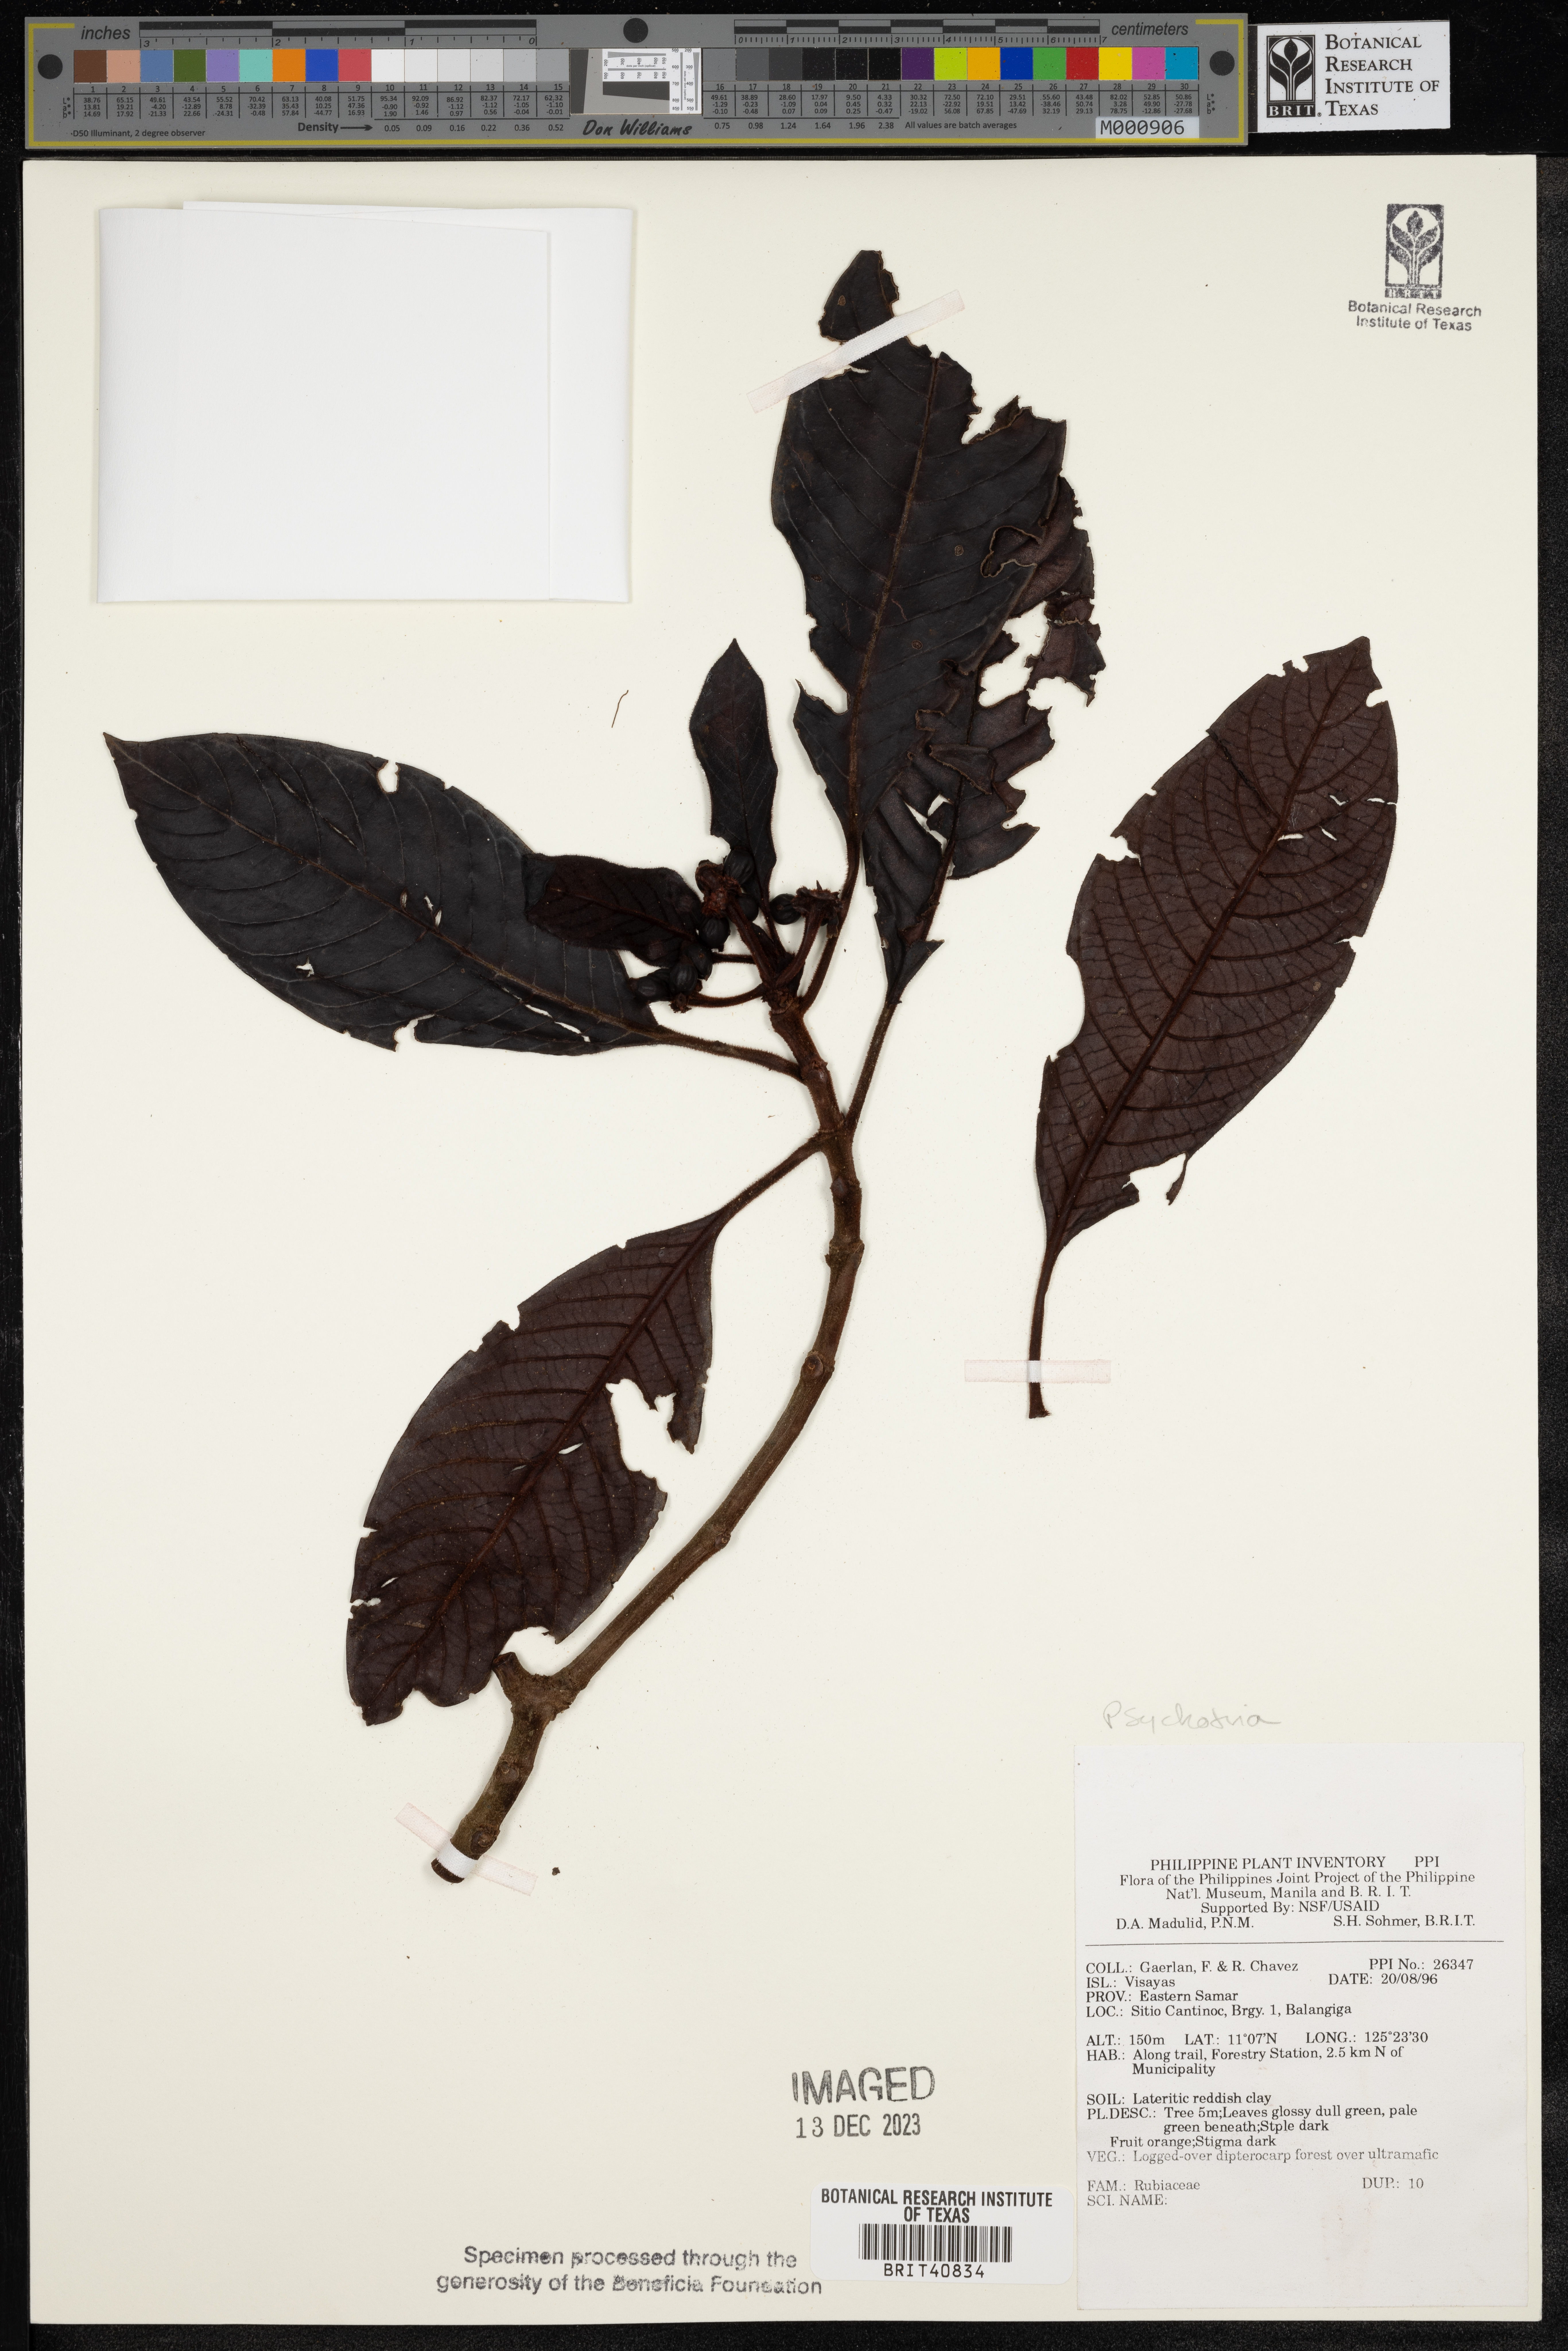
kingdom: Plantae
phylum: Tracheophyta
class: Magnoliopsida
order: Gentianales
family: Rubiaceae
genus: Psychotria
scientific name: Psychotria
